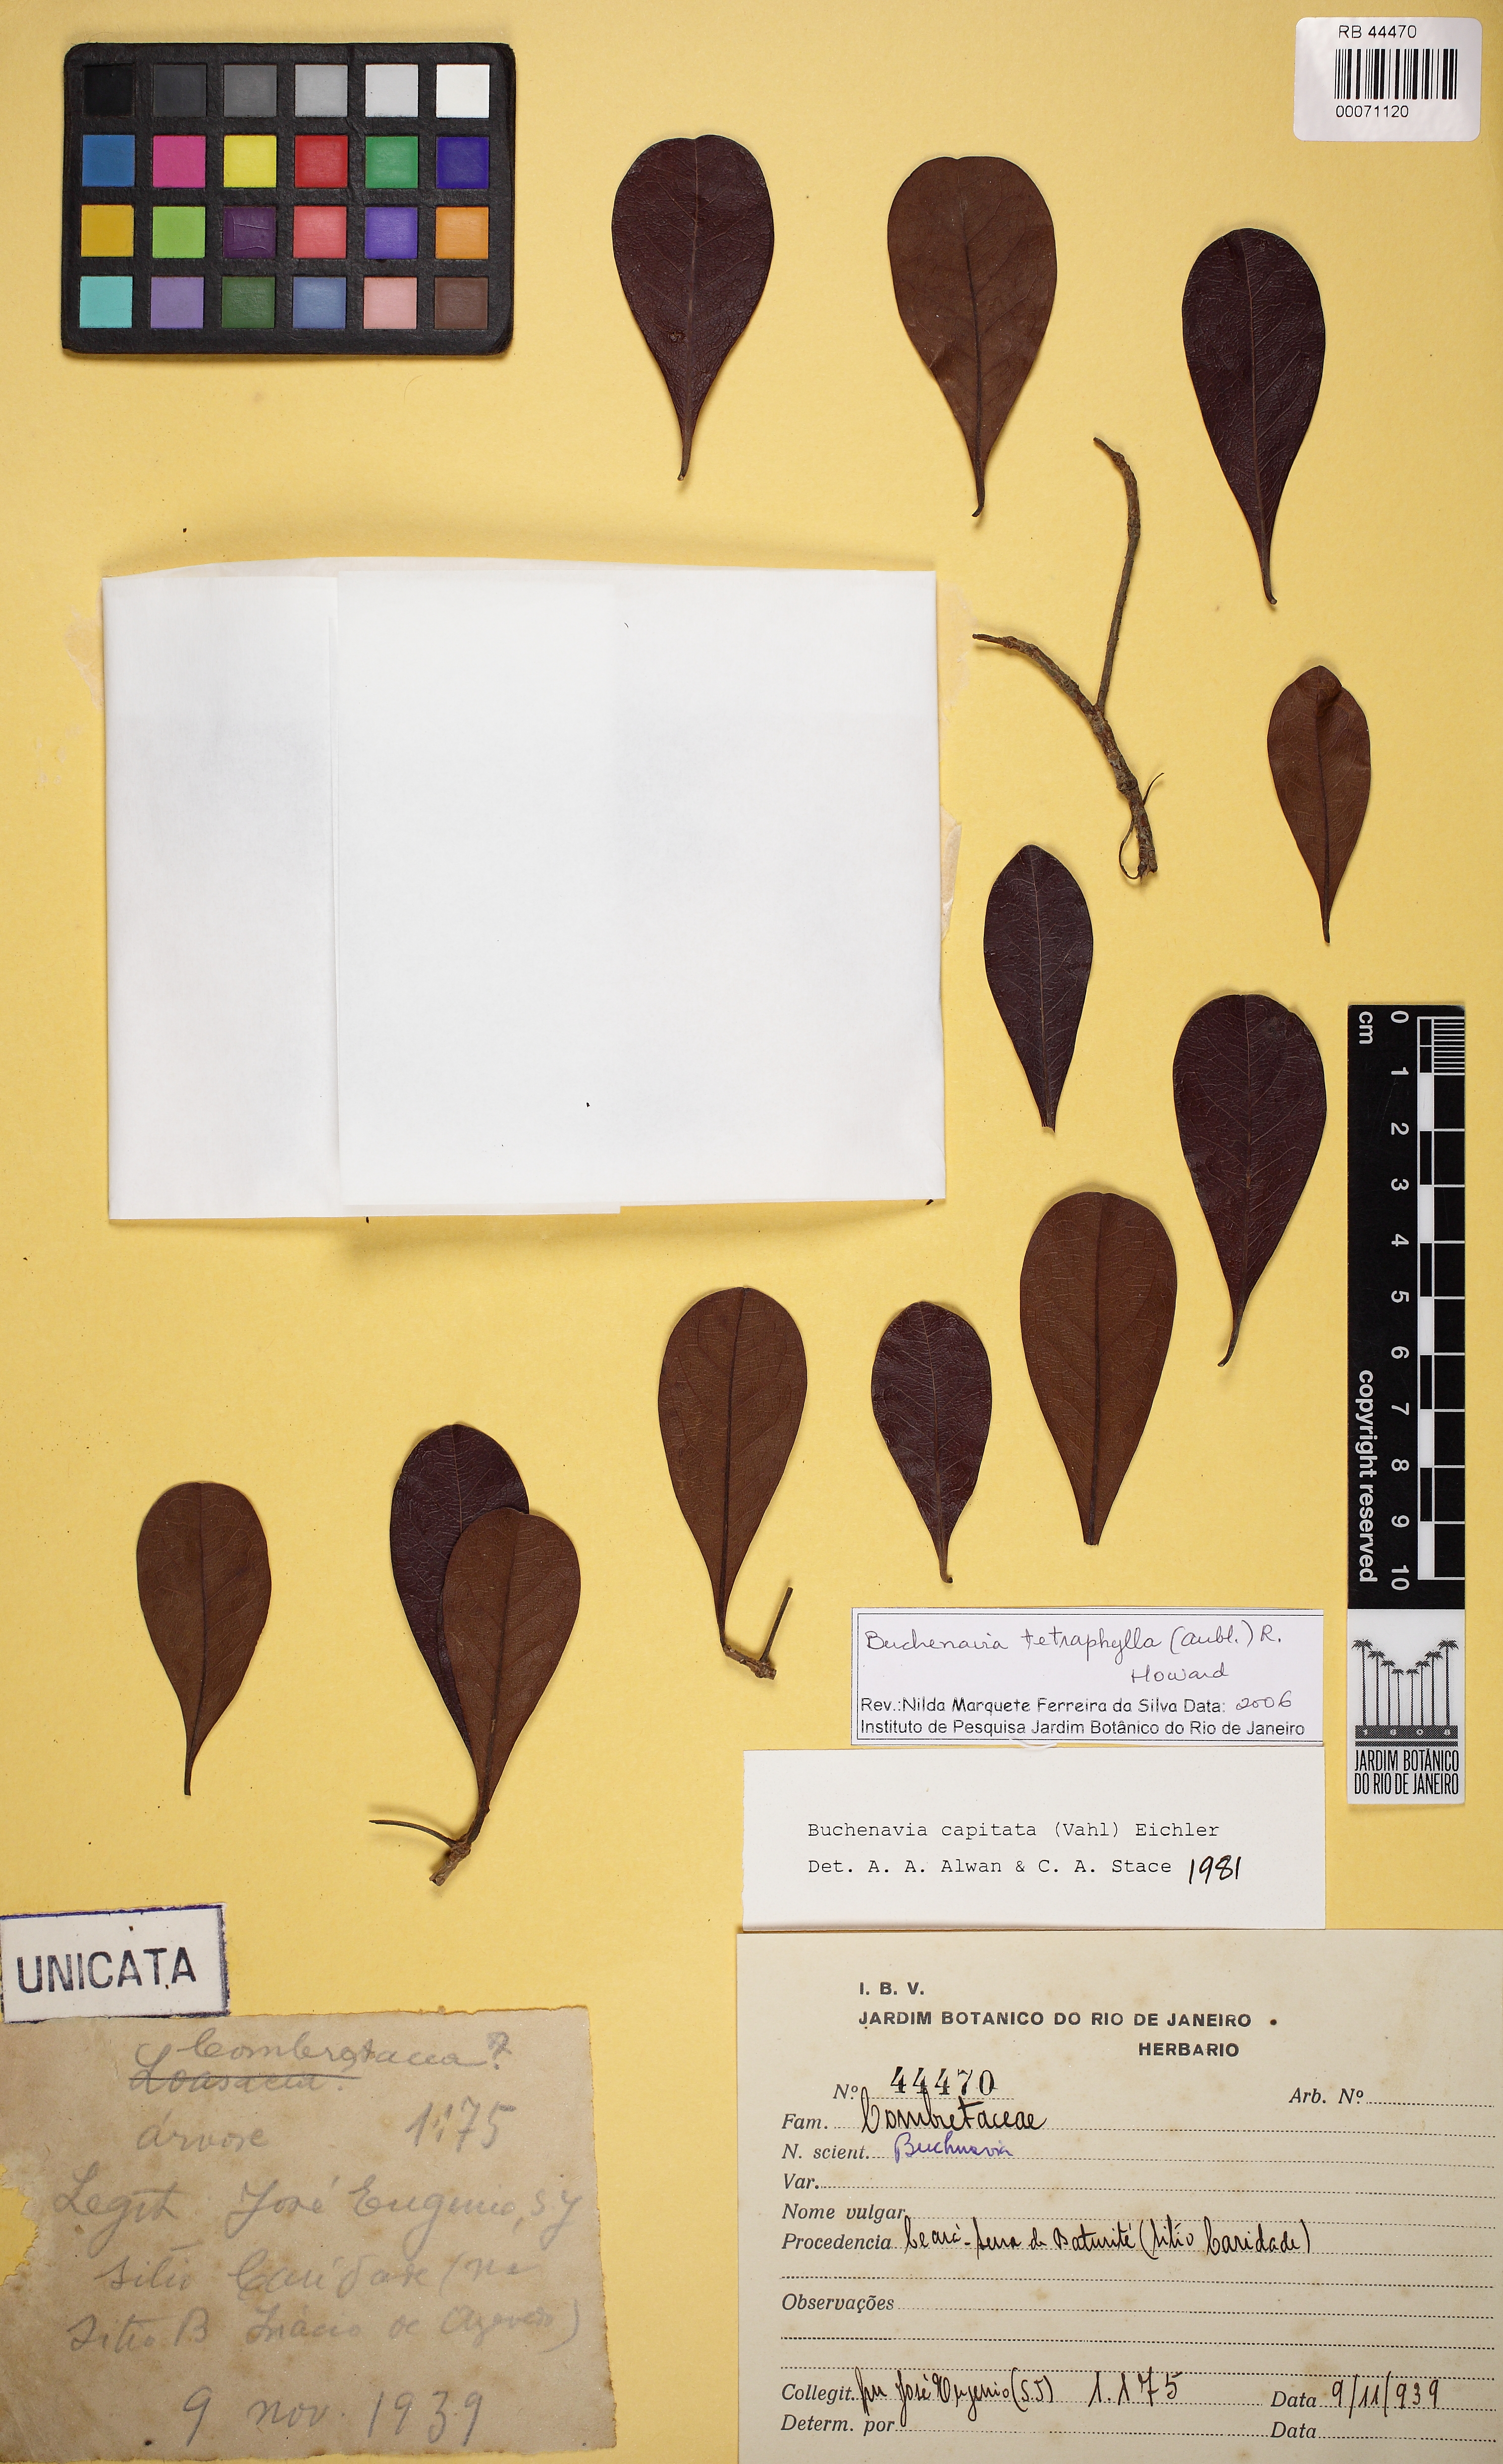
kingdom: Plantae
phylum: Tracheophyta
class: Magnoliopsida
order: Myrtales
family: Combretaceae
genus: Terminalia
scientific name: Terminalia tetraphylla
